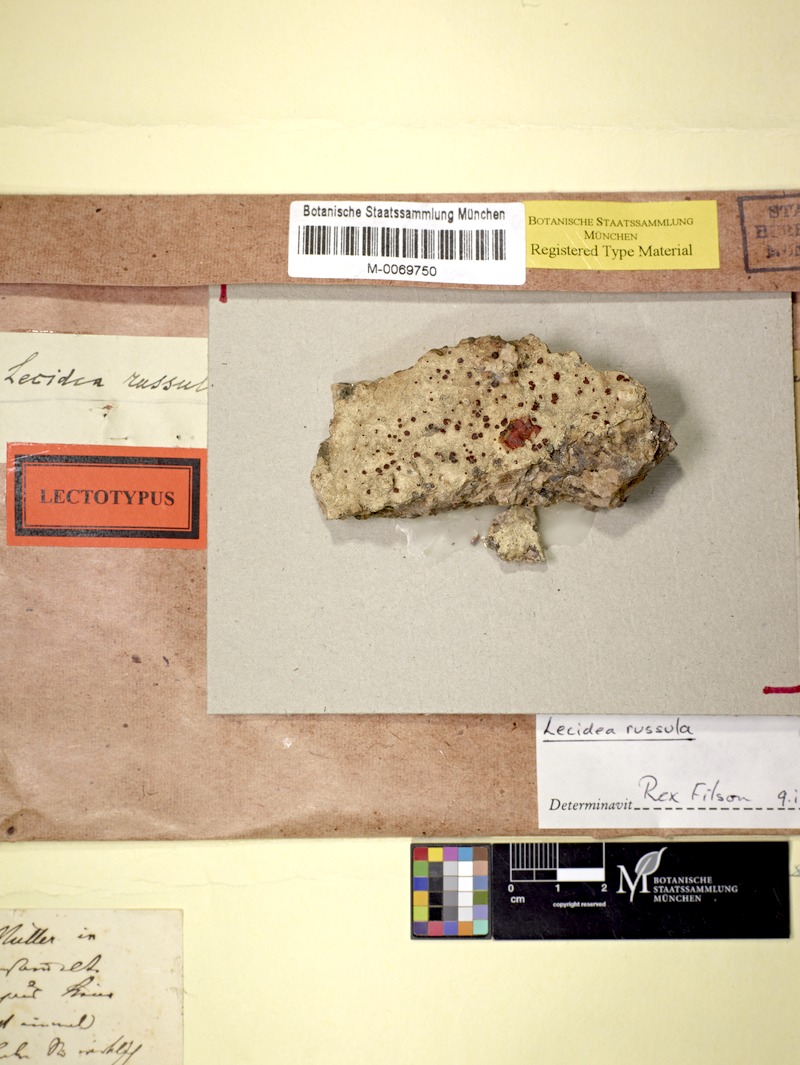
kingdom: Fungi
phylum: Ascomycota
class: Lecanoromycetes
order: Lecanorales
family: Ramboldiaceae
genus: Ramboldia
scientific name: Ramboldia sanguinolenta
